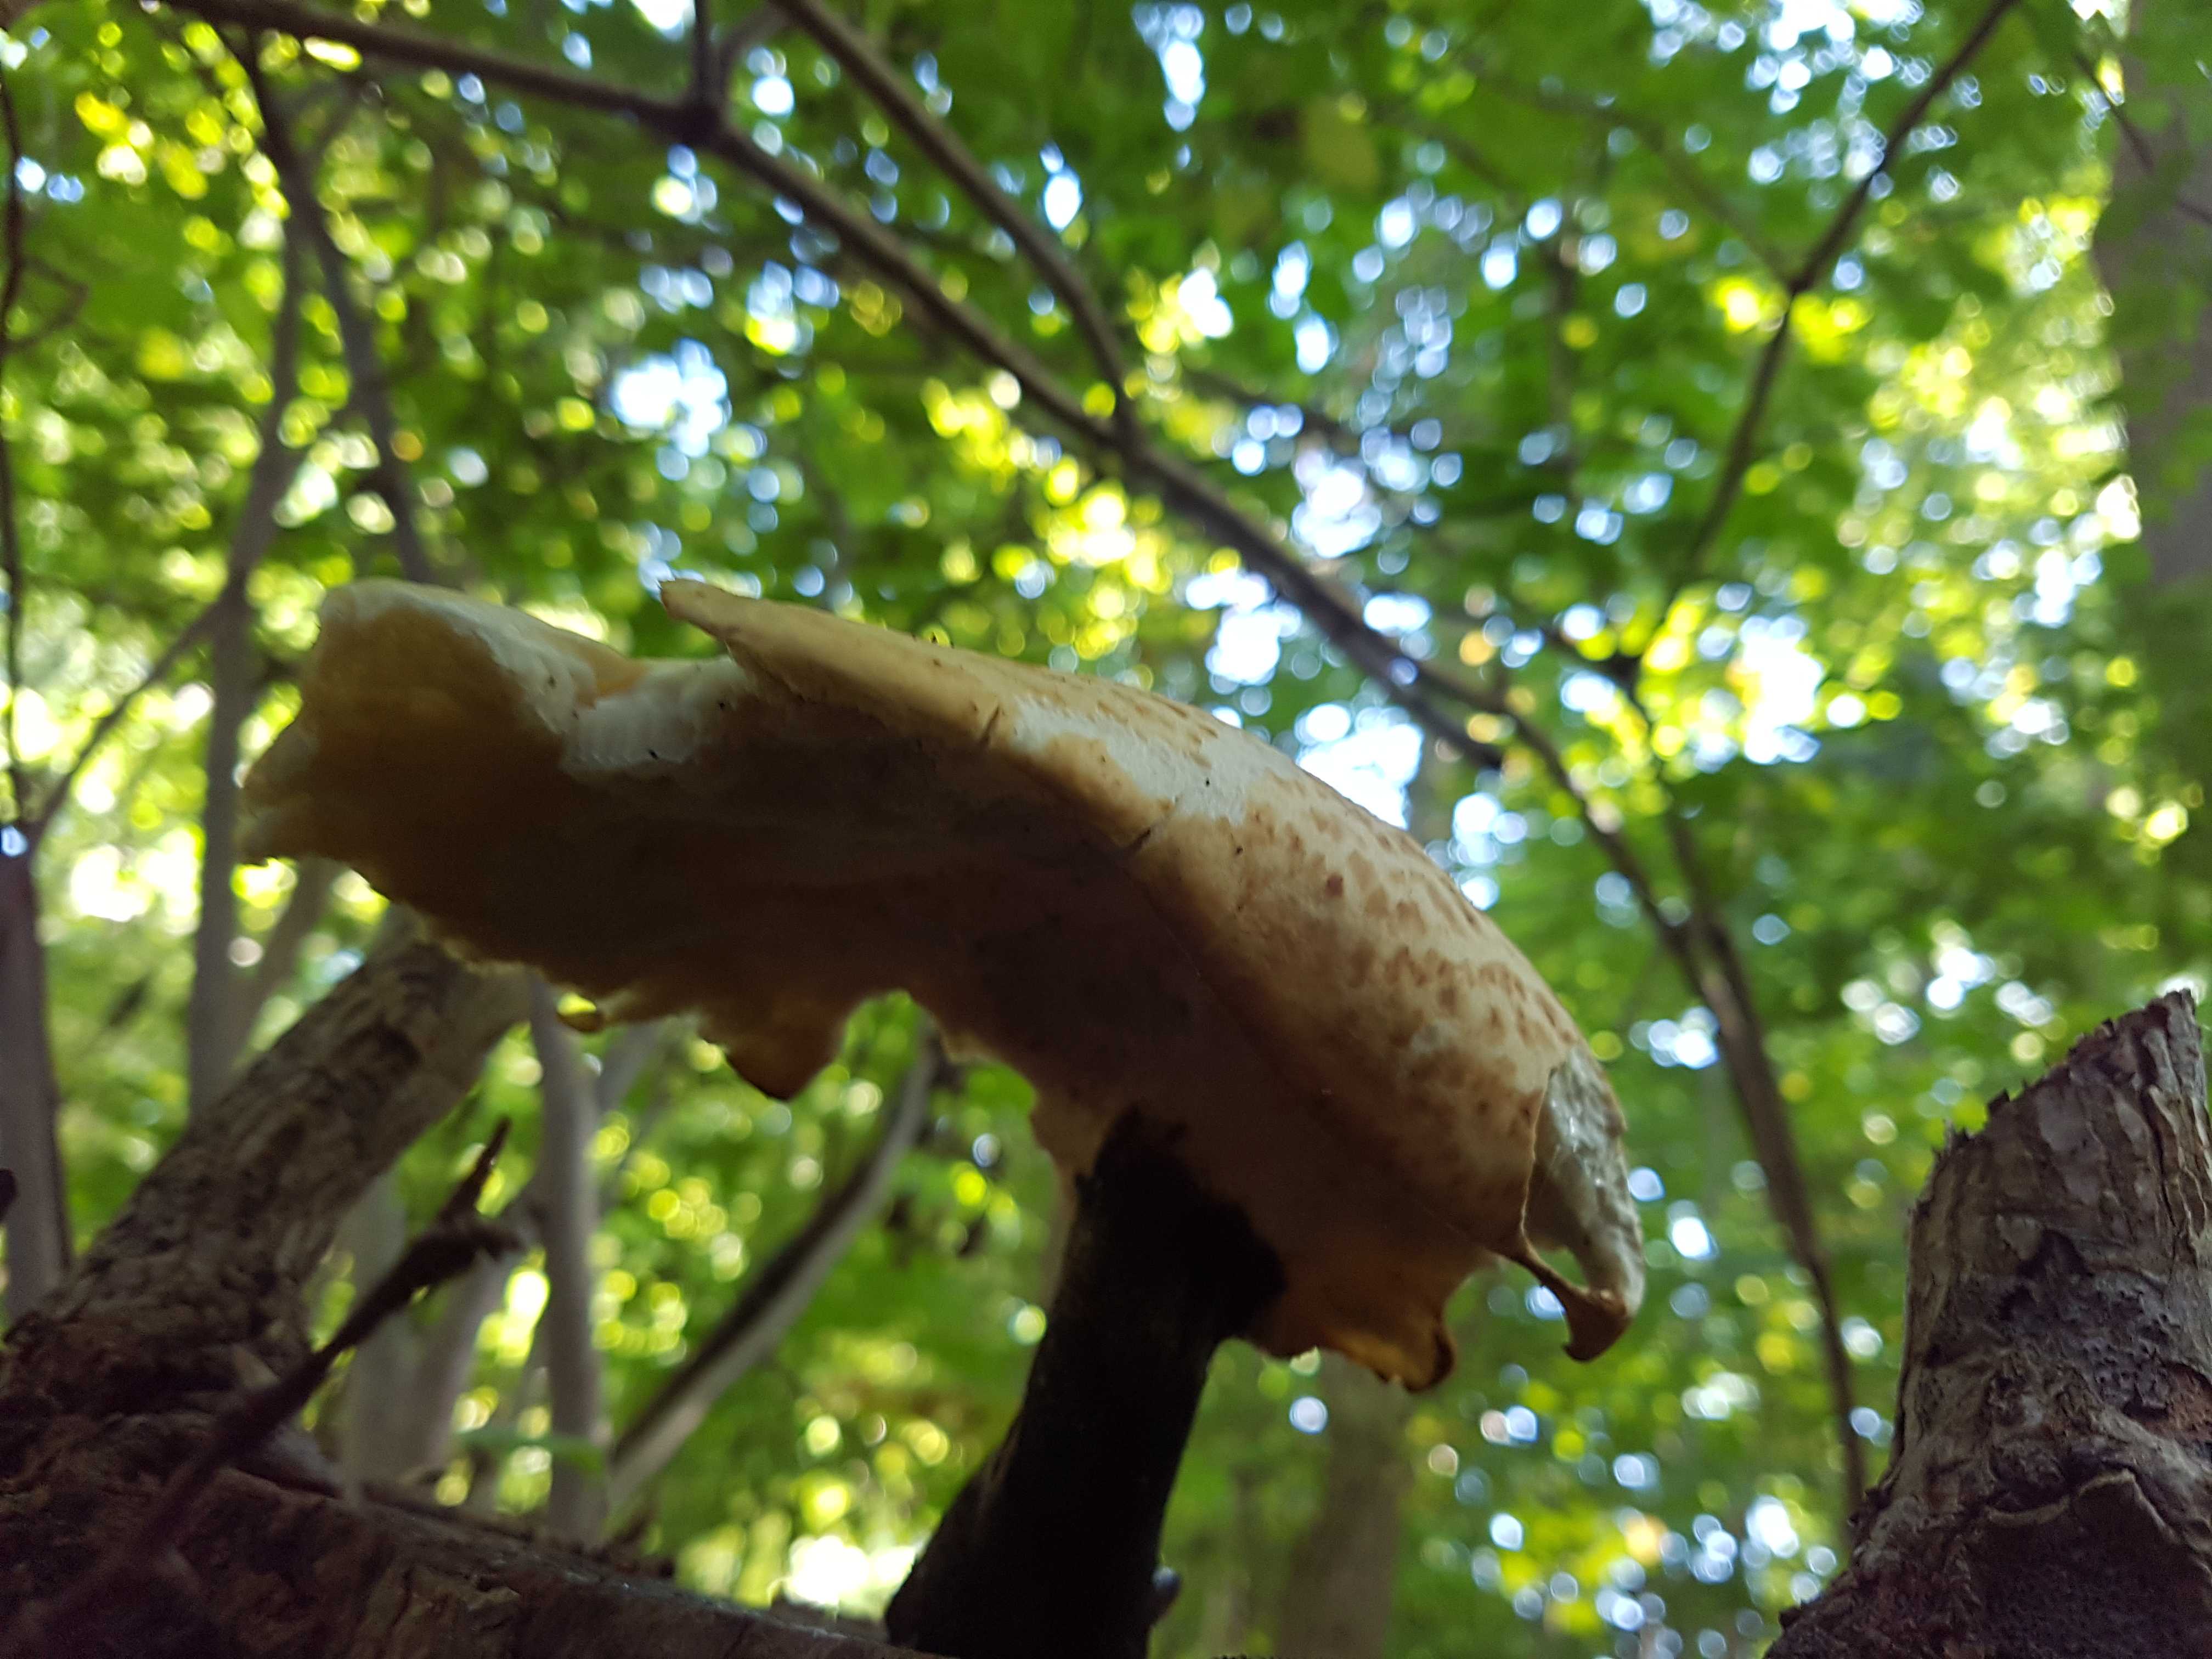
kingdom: Fungi
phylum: Basidiomycota
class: Agaricomycetes
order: Polyporales
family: Polyporaceae
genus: Cerioporus
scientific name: Cerioporus squamosus
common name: skællet stilkporesvamp
